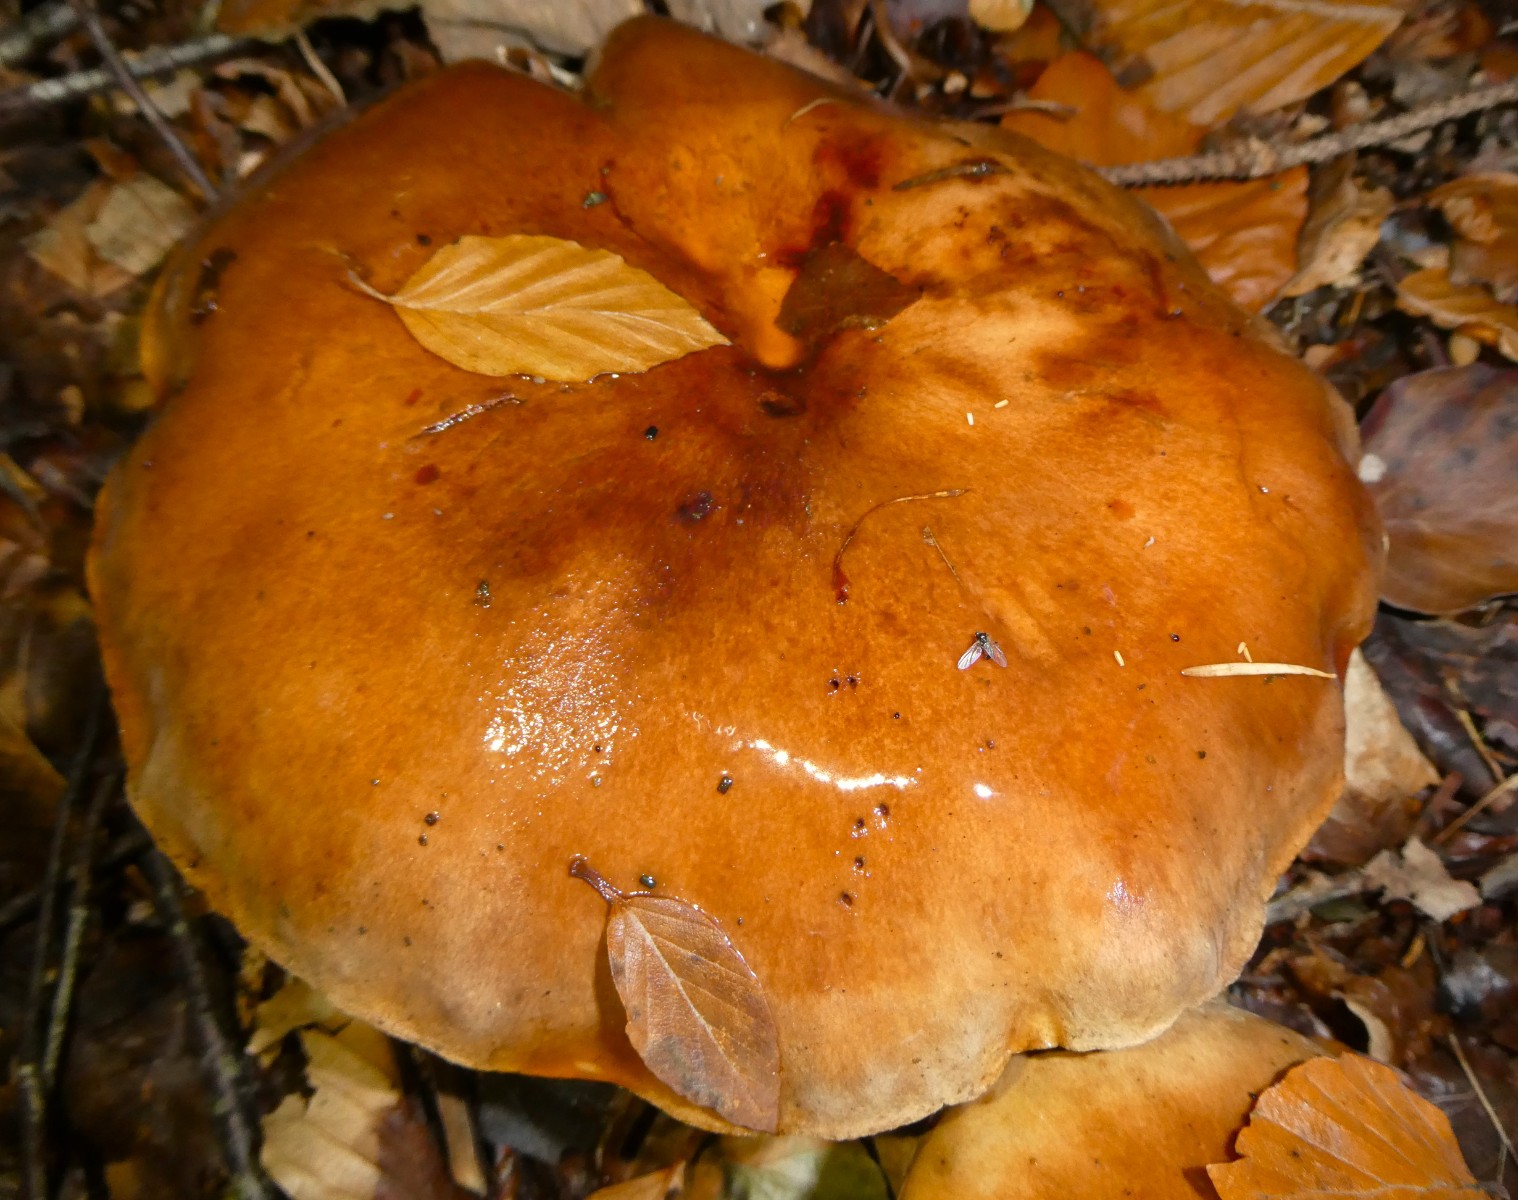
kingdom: Fungi
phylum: Basidiomycota
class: Agaricomycetes
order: Agaricales
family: Tricholomataceae
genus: Tricholoma
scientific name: Tricholoma ustale
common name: sveden ridderhat
